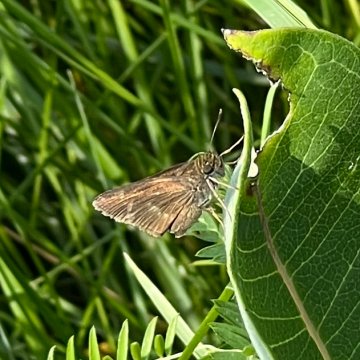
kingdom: Animalia
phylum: Arthropoda
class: Insecta
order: Lepidoptera
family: Hesperiidae
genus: Euphyes
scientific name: Euphyes vestris
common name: Dun Skipper
